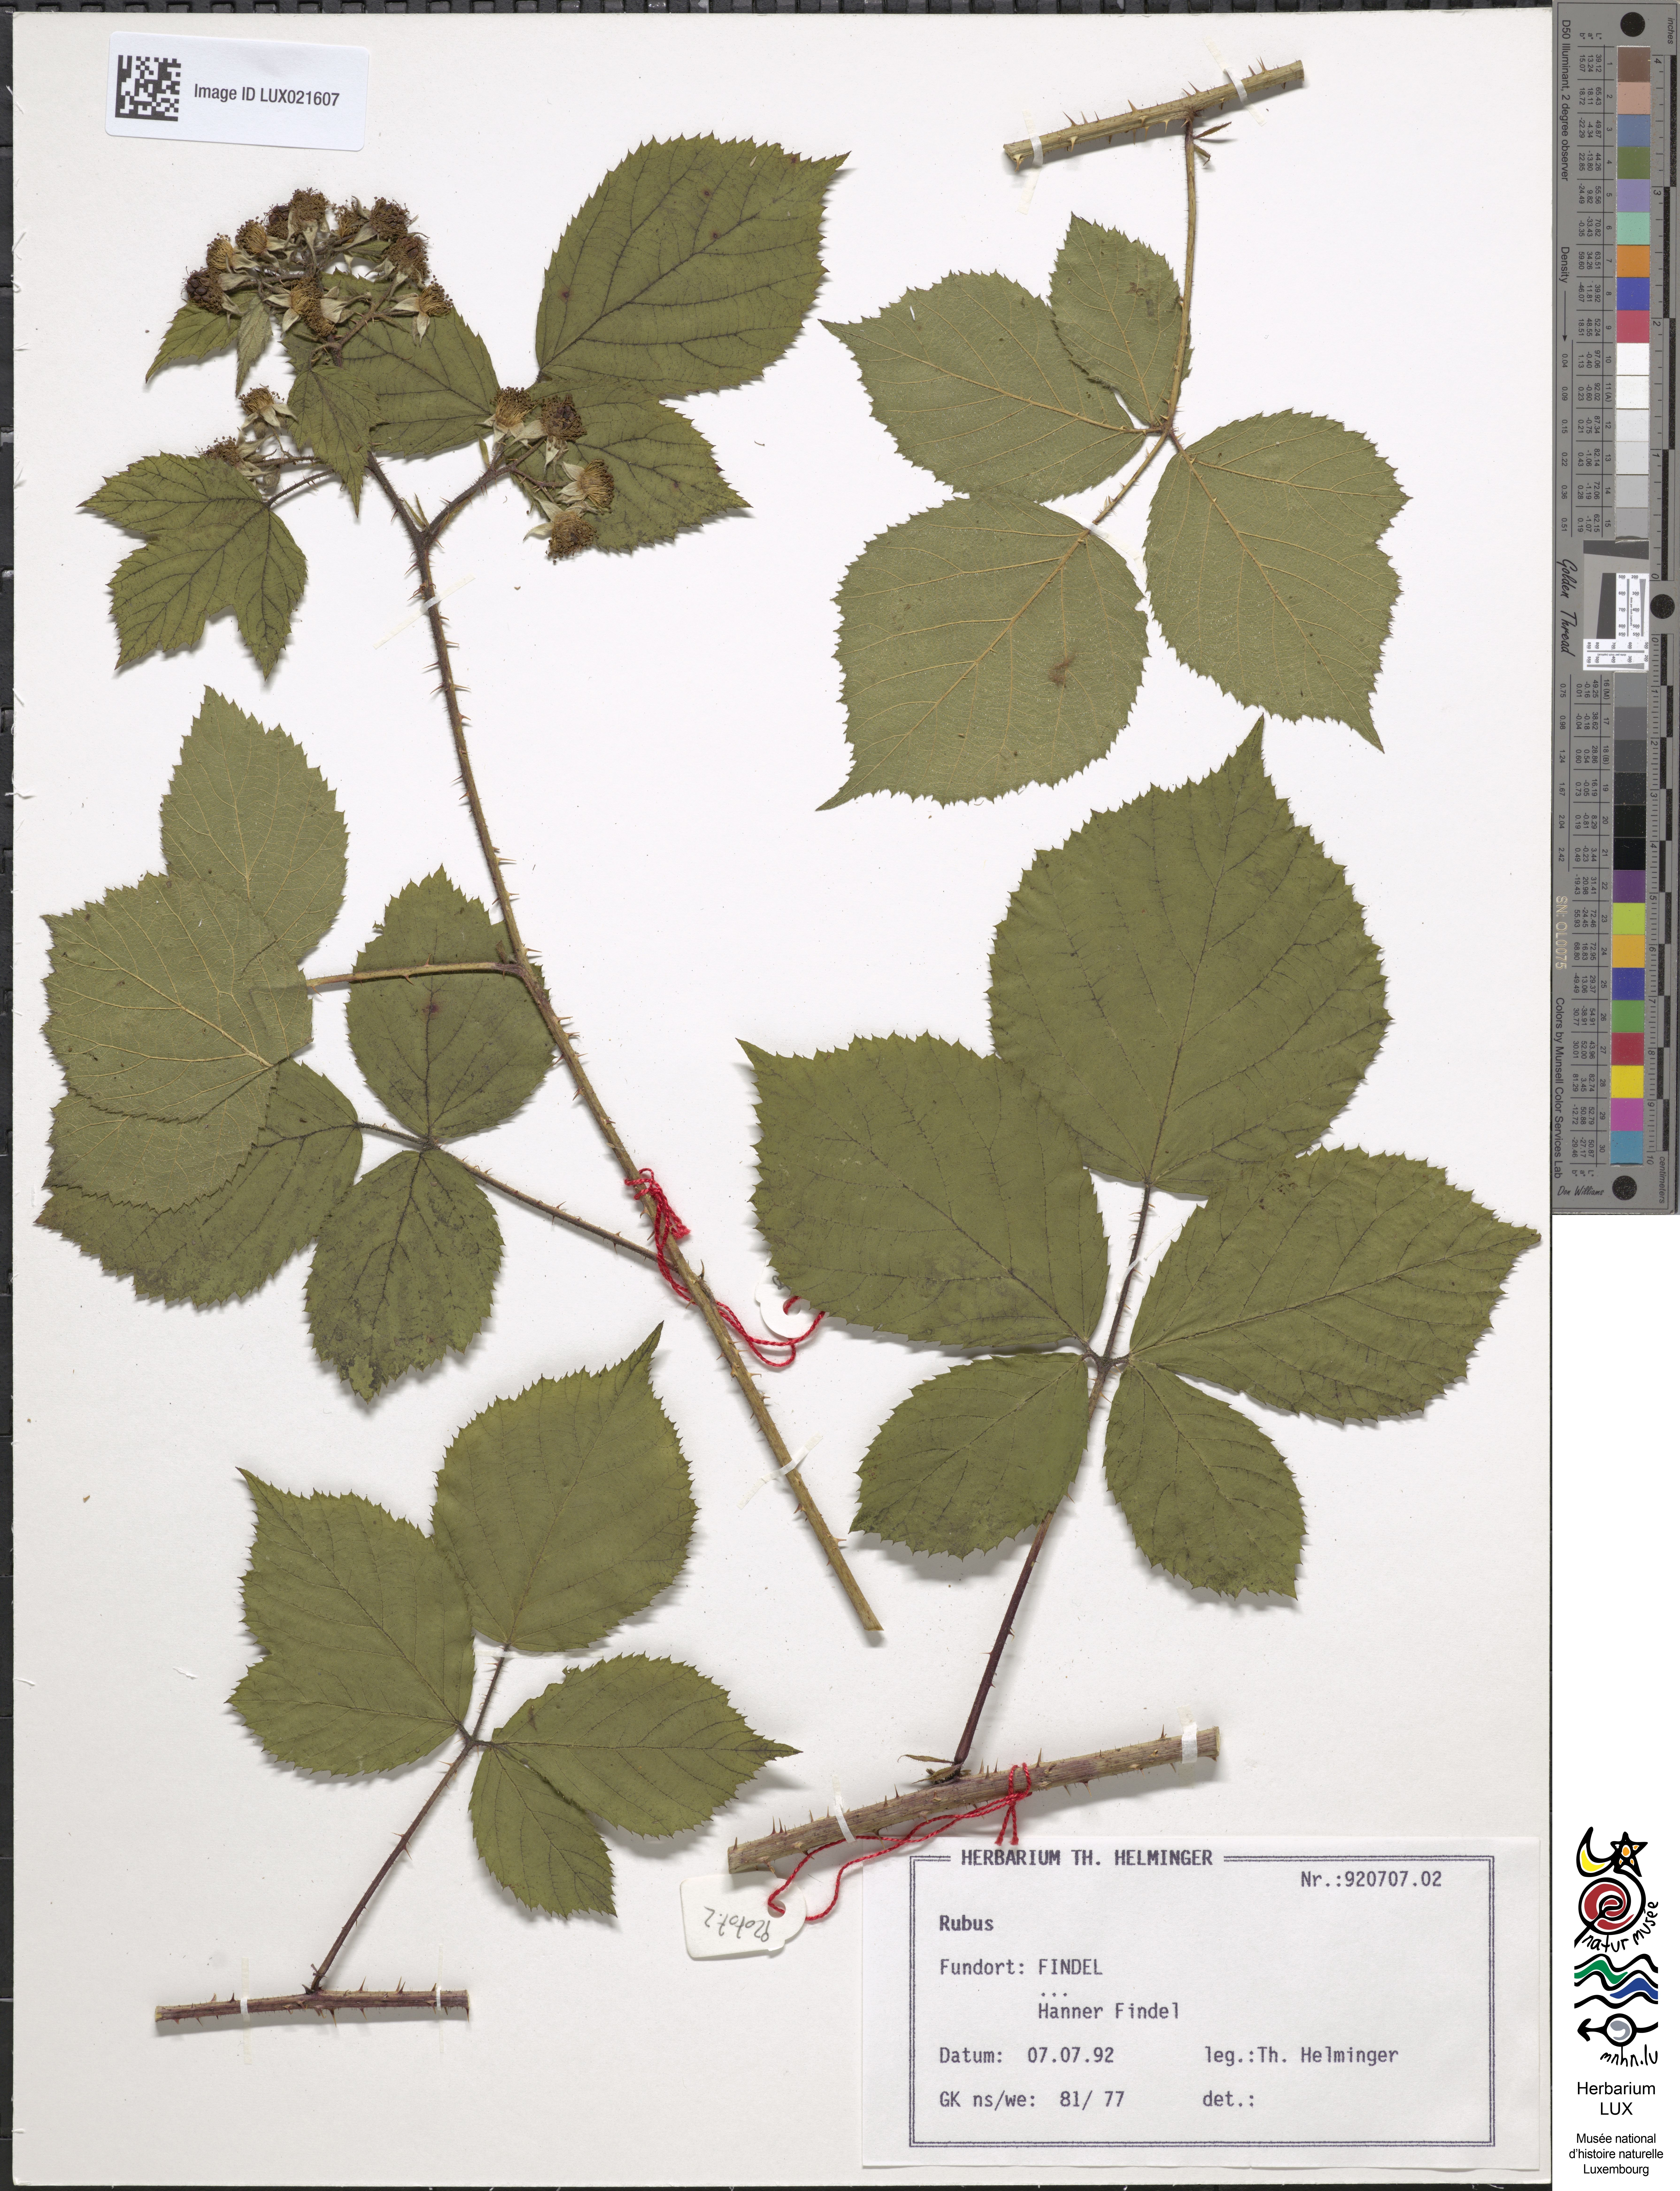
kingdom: Plantae
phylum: Tracheophyta
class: Magnoliopsida
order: Rosales
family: Rosaceae
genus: Rubus
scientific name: Rubus
